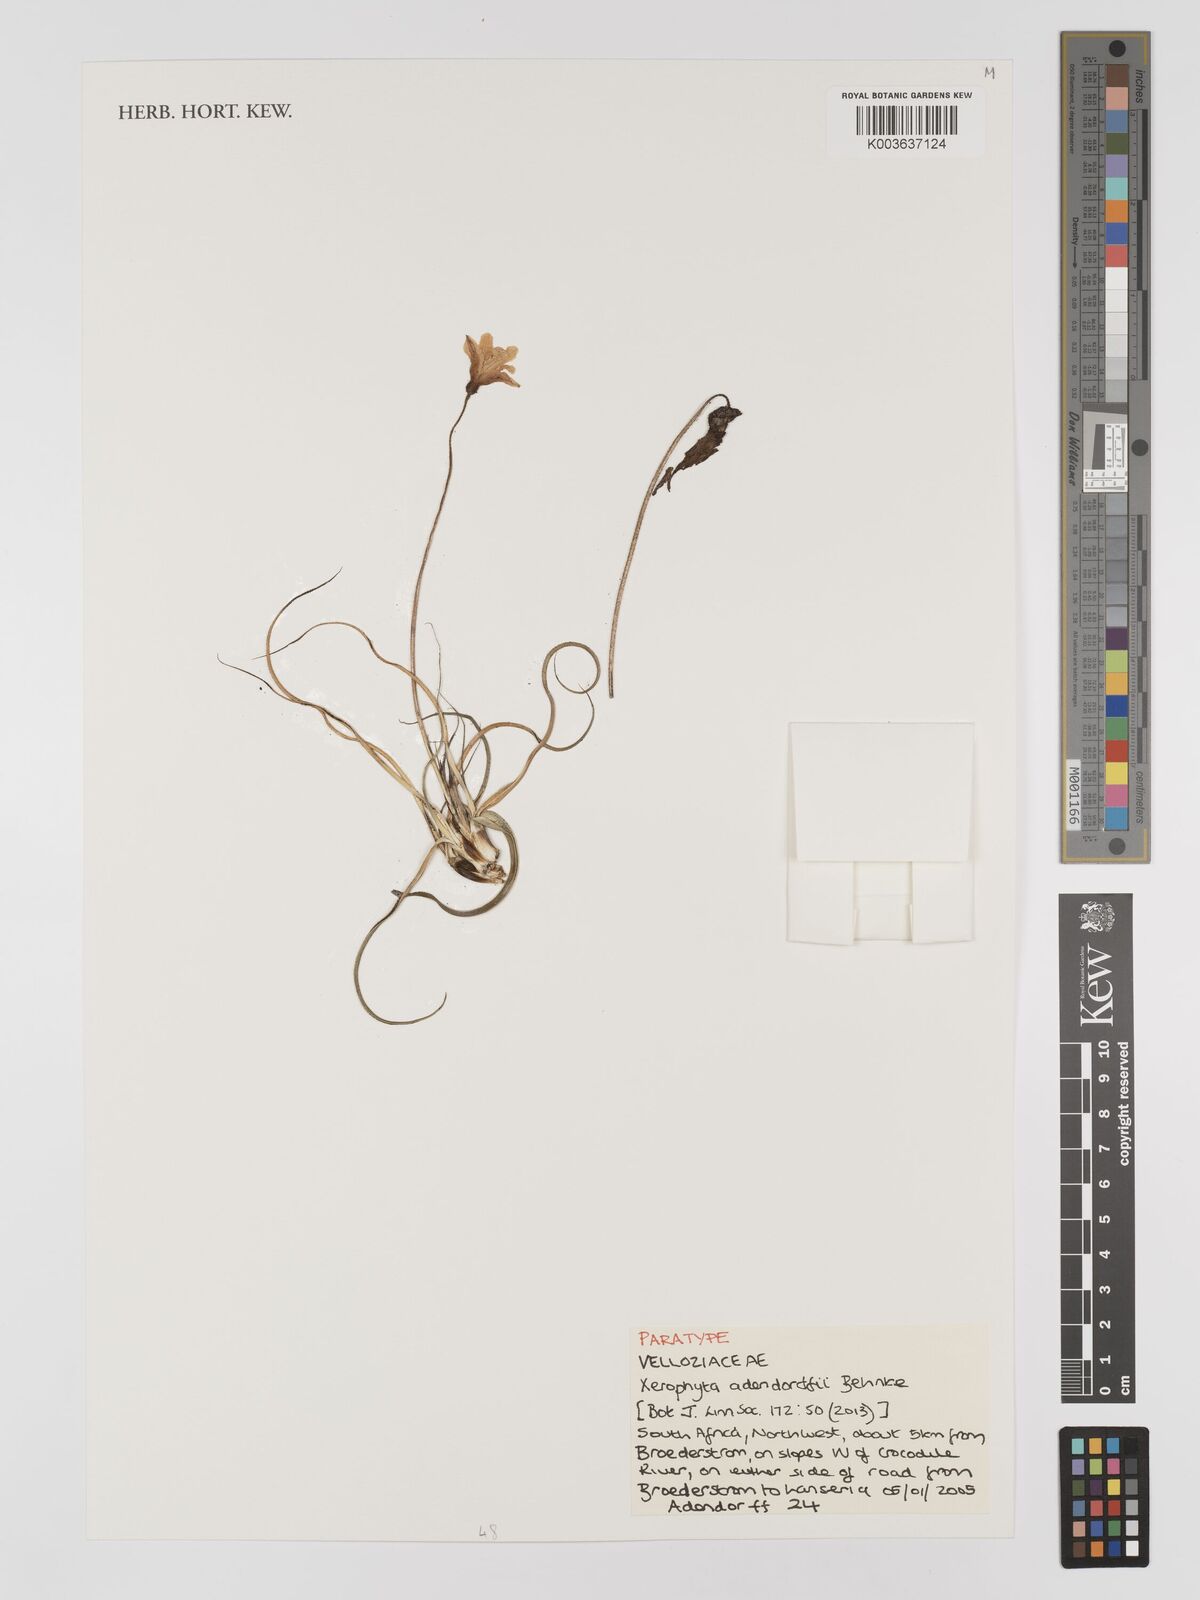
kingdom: Plantae
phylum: Tracheophyta
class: Liliopsida
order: Pandanales
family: Velloziaceae
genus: Xerophyta
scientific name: Xerophyta adendorffii
